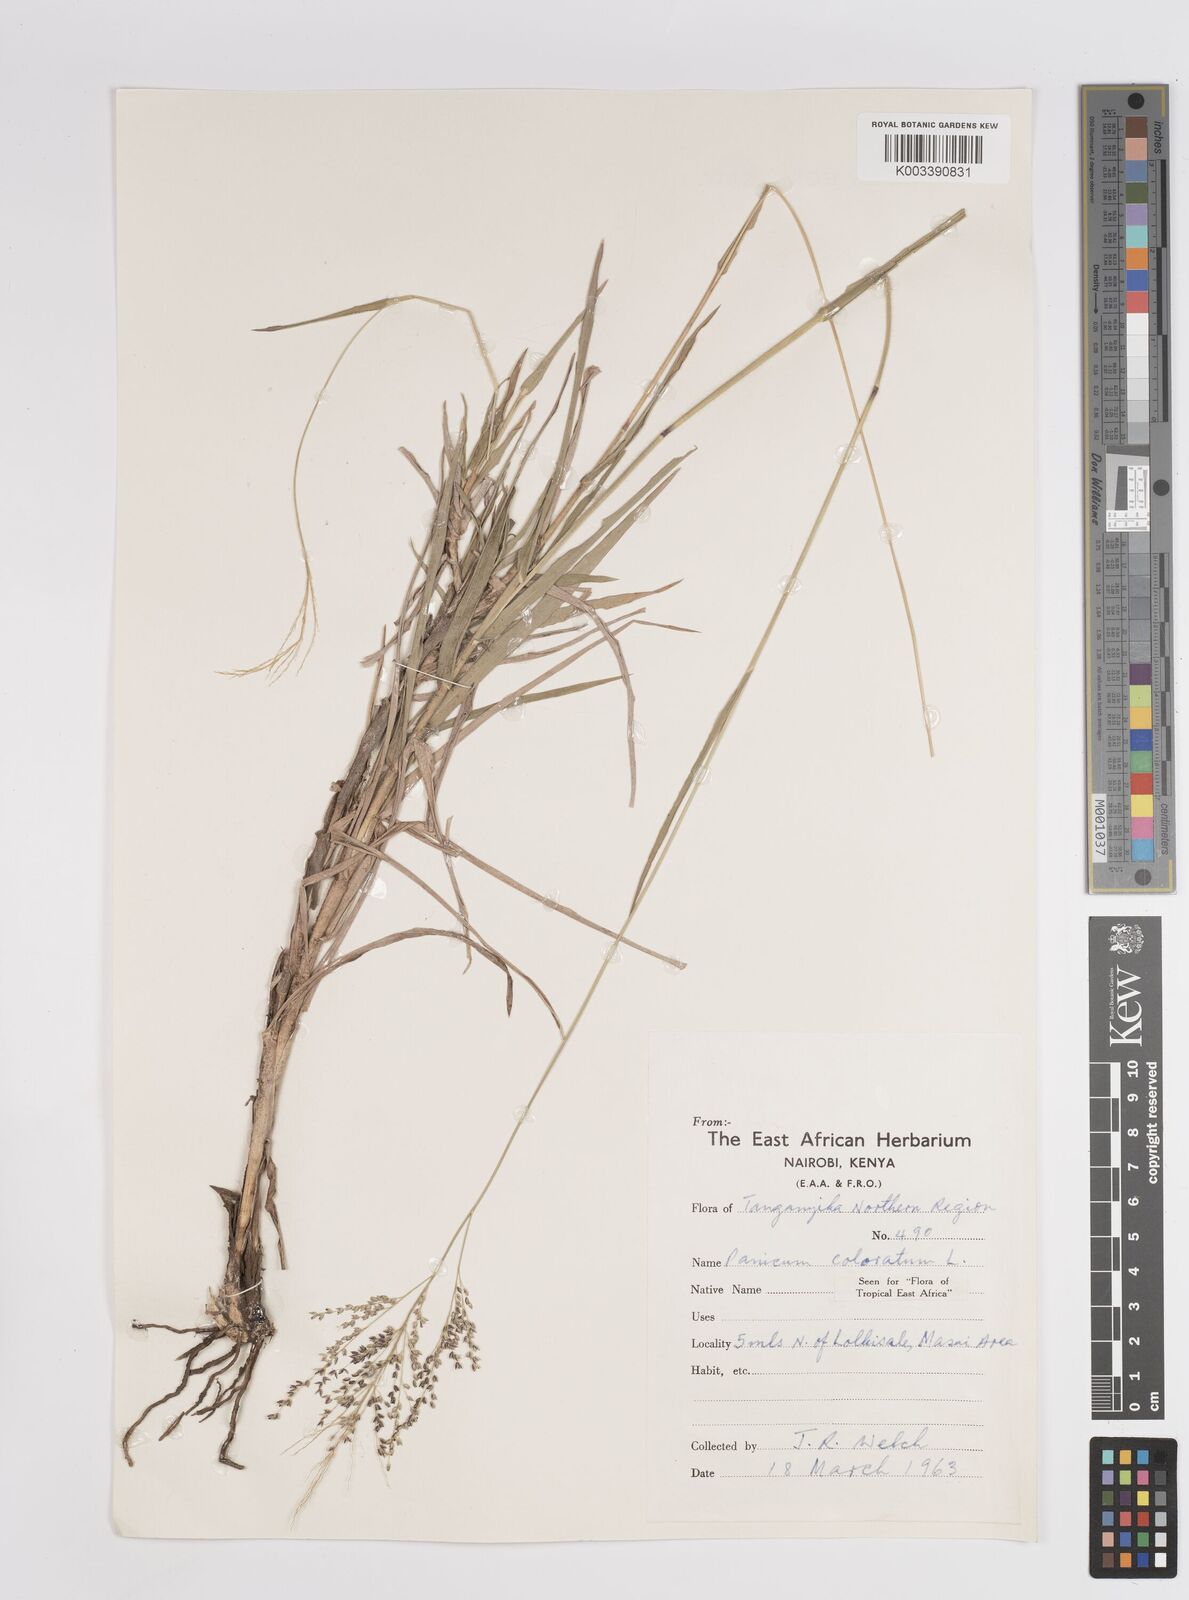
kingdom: Plantae
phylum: Tracheophyta
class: Liliopsida
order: Poales
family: Poaceae
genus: Panicum
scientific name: Panicum coloratum
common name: Kleingrass
